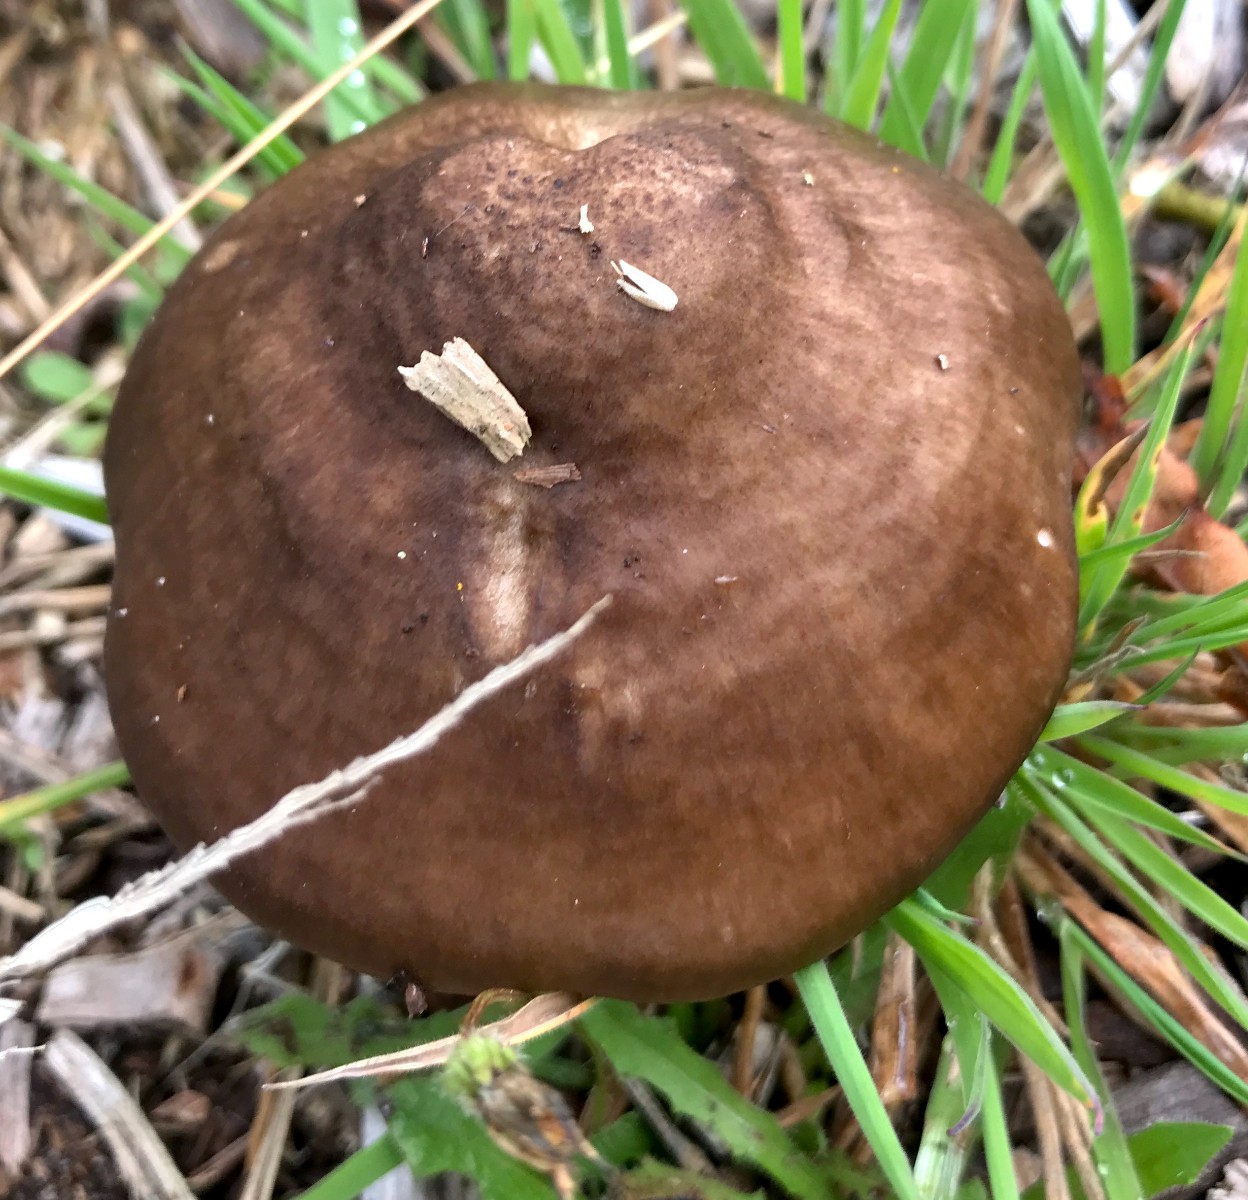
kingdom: Fungi
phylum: Basidiomycota
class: Agaricomycetes
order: Agaricales
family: Pluteaceae
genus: Pluteus
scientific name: Pluteus cervinus
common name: sodfarvet skærmhat
